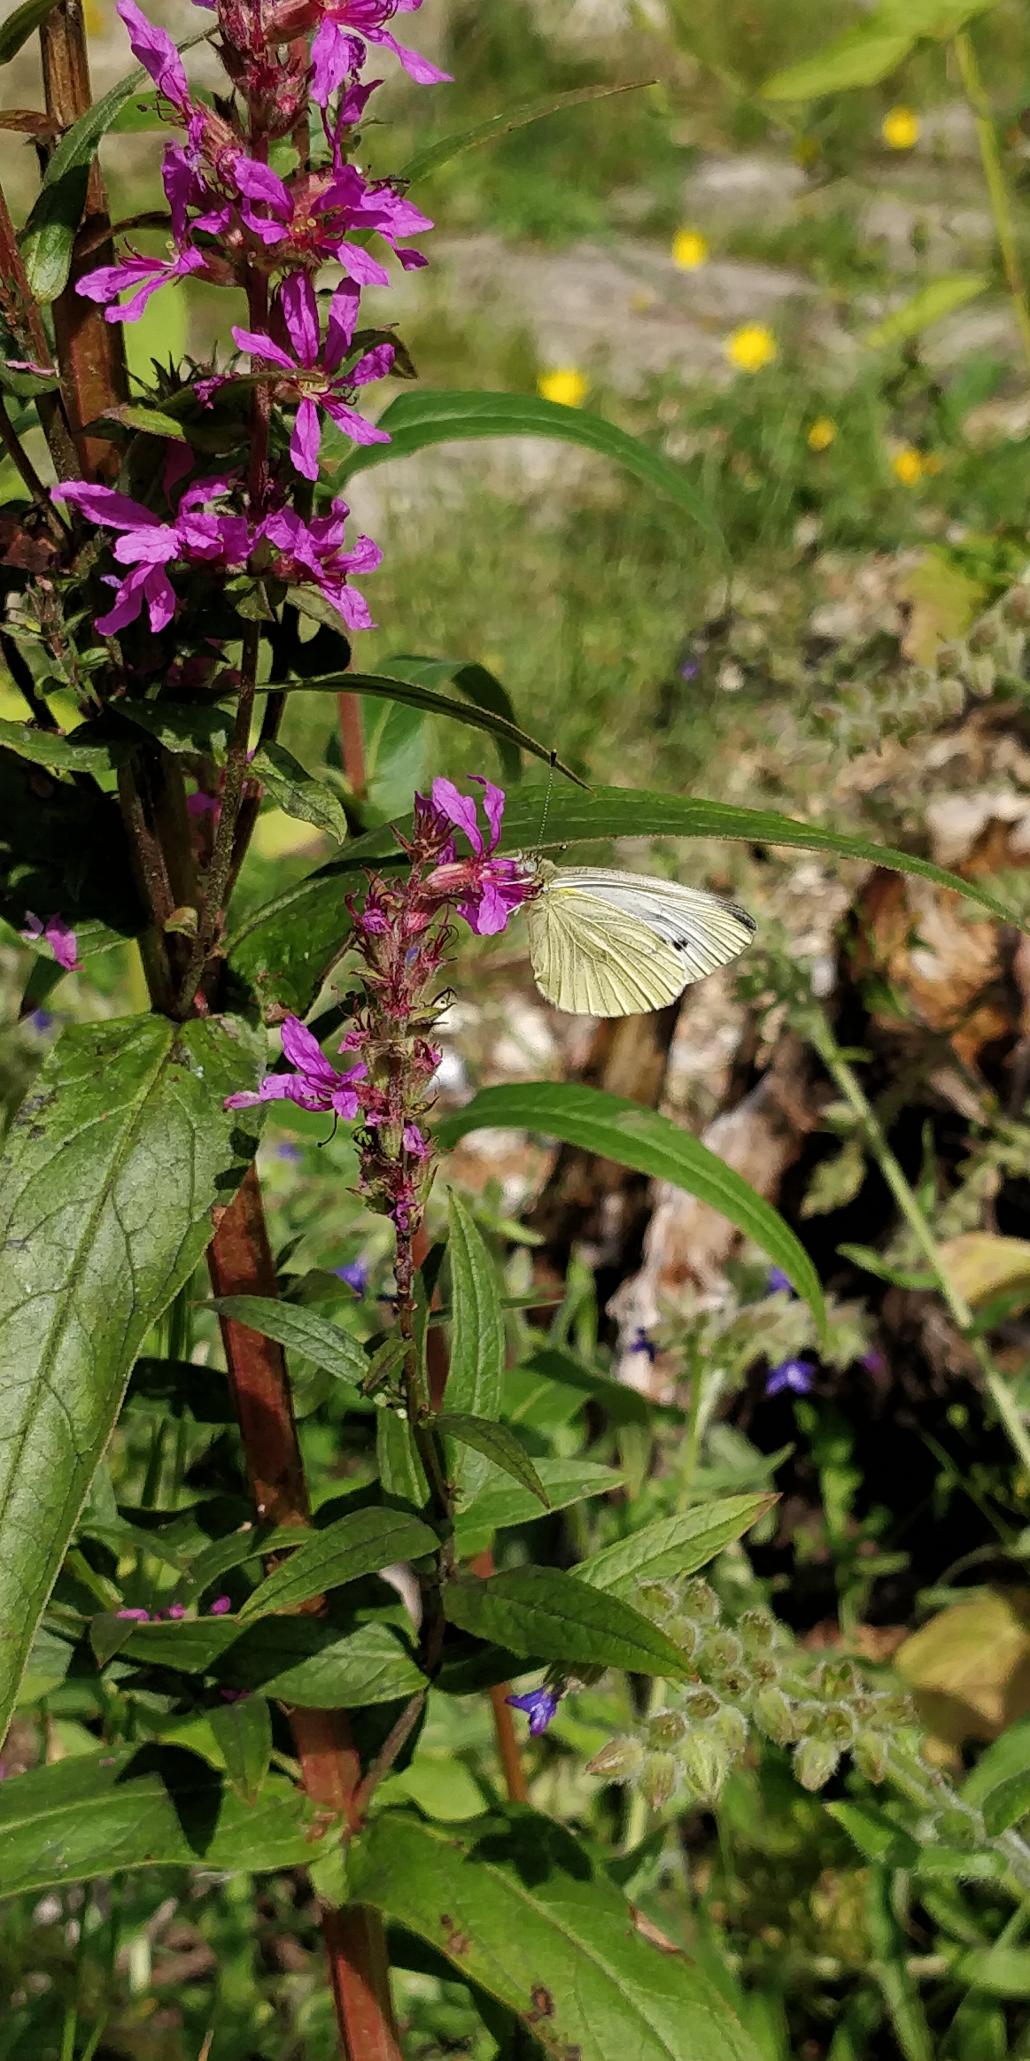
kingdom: Animalia
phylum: Arthropoda
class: Insecta
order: Lepidoptera
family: Pieridae
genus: Pieris
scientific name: Pieris napi
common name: Grønåret kålsommerfugl
